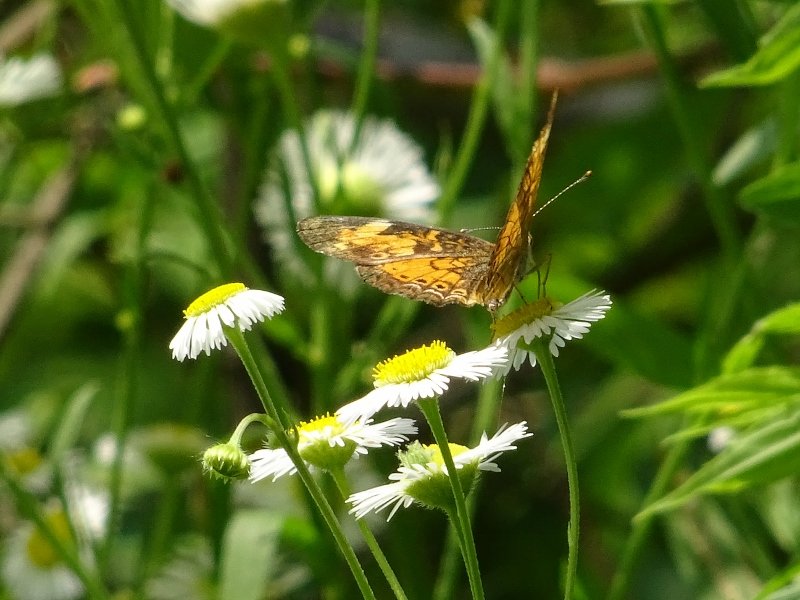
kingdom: Animalia
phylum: Arthropoda
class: Insecta
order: Lepidoptera
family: Nymphalidae
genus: Phyciodes
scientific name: Phyciodes tharos
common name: Northern Crescent
